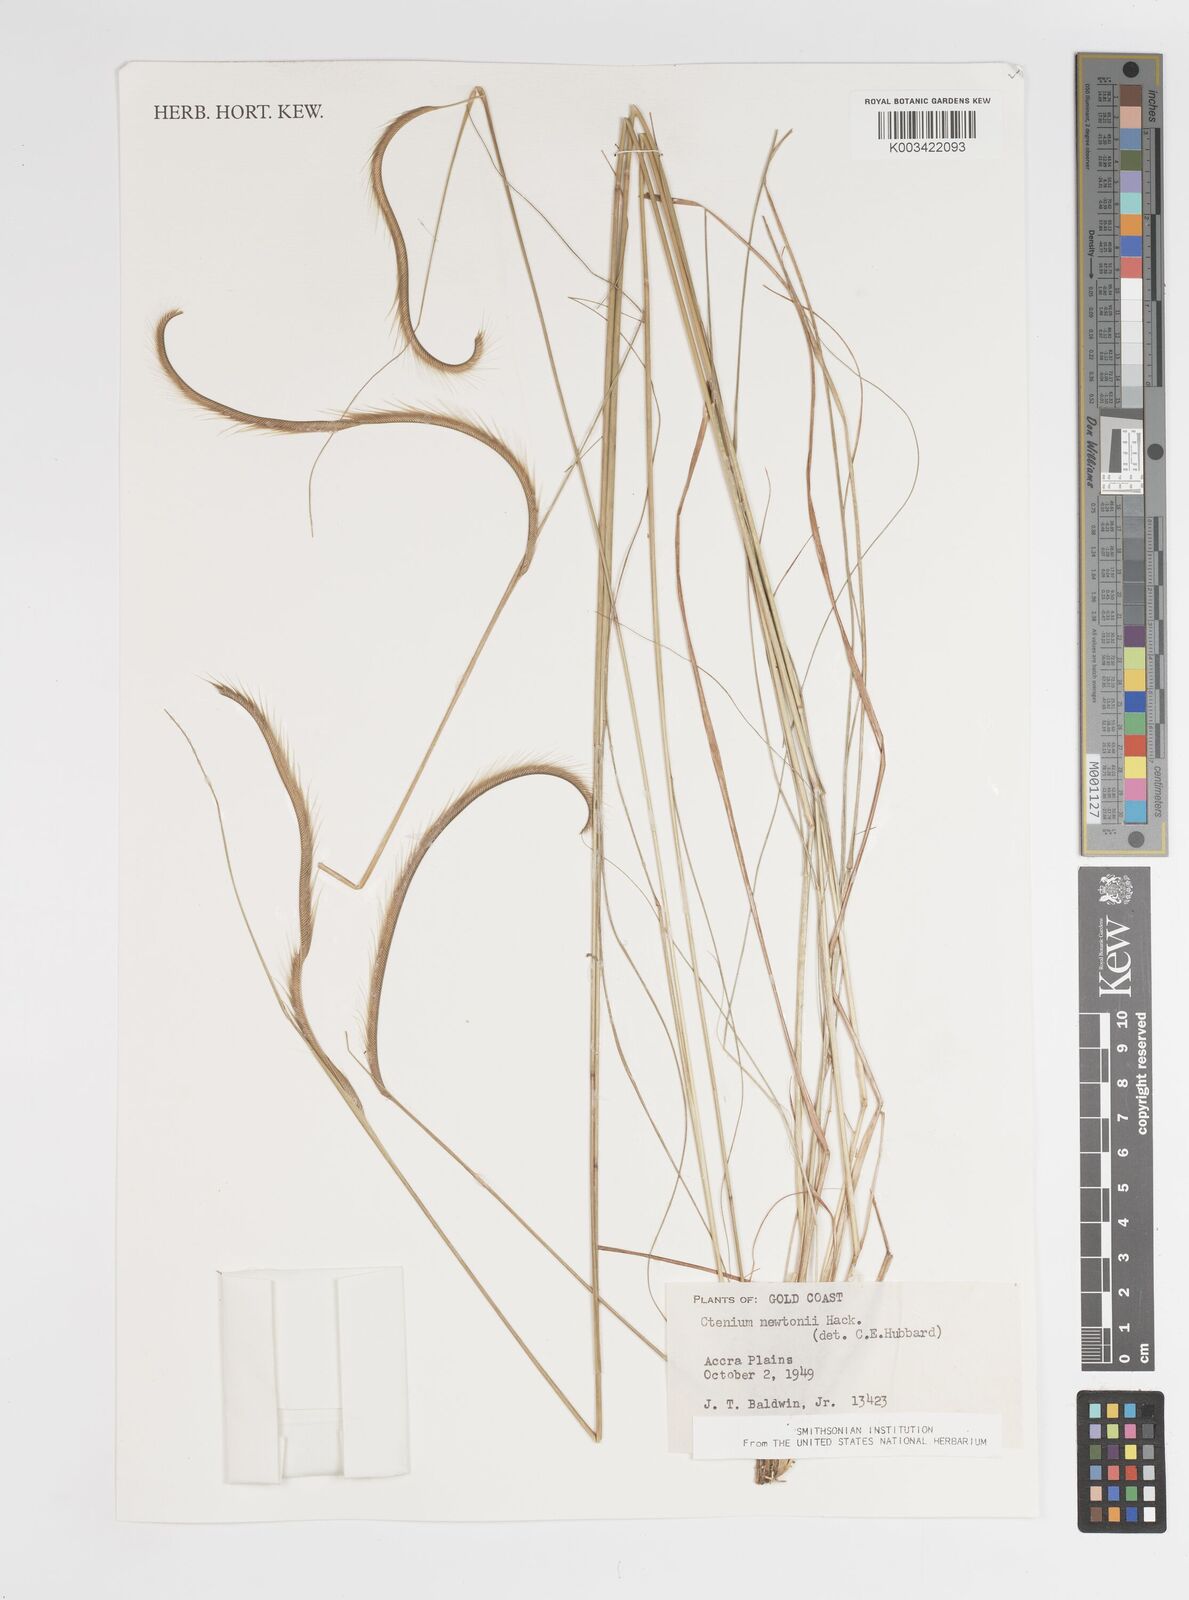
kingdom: Plantae
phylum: Tracheophyta
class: Liliopsida
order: Poales
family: Poaceae
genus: Ctenium
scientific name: Ctenium newtonii
